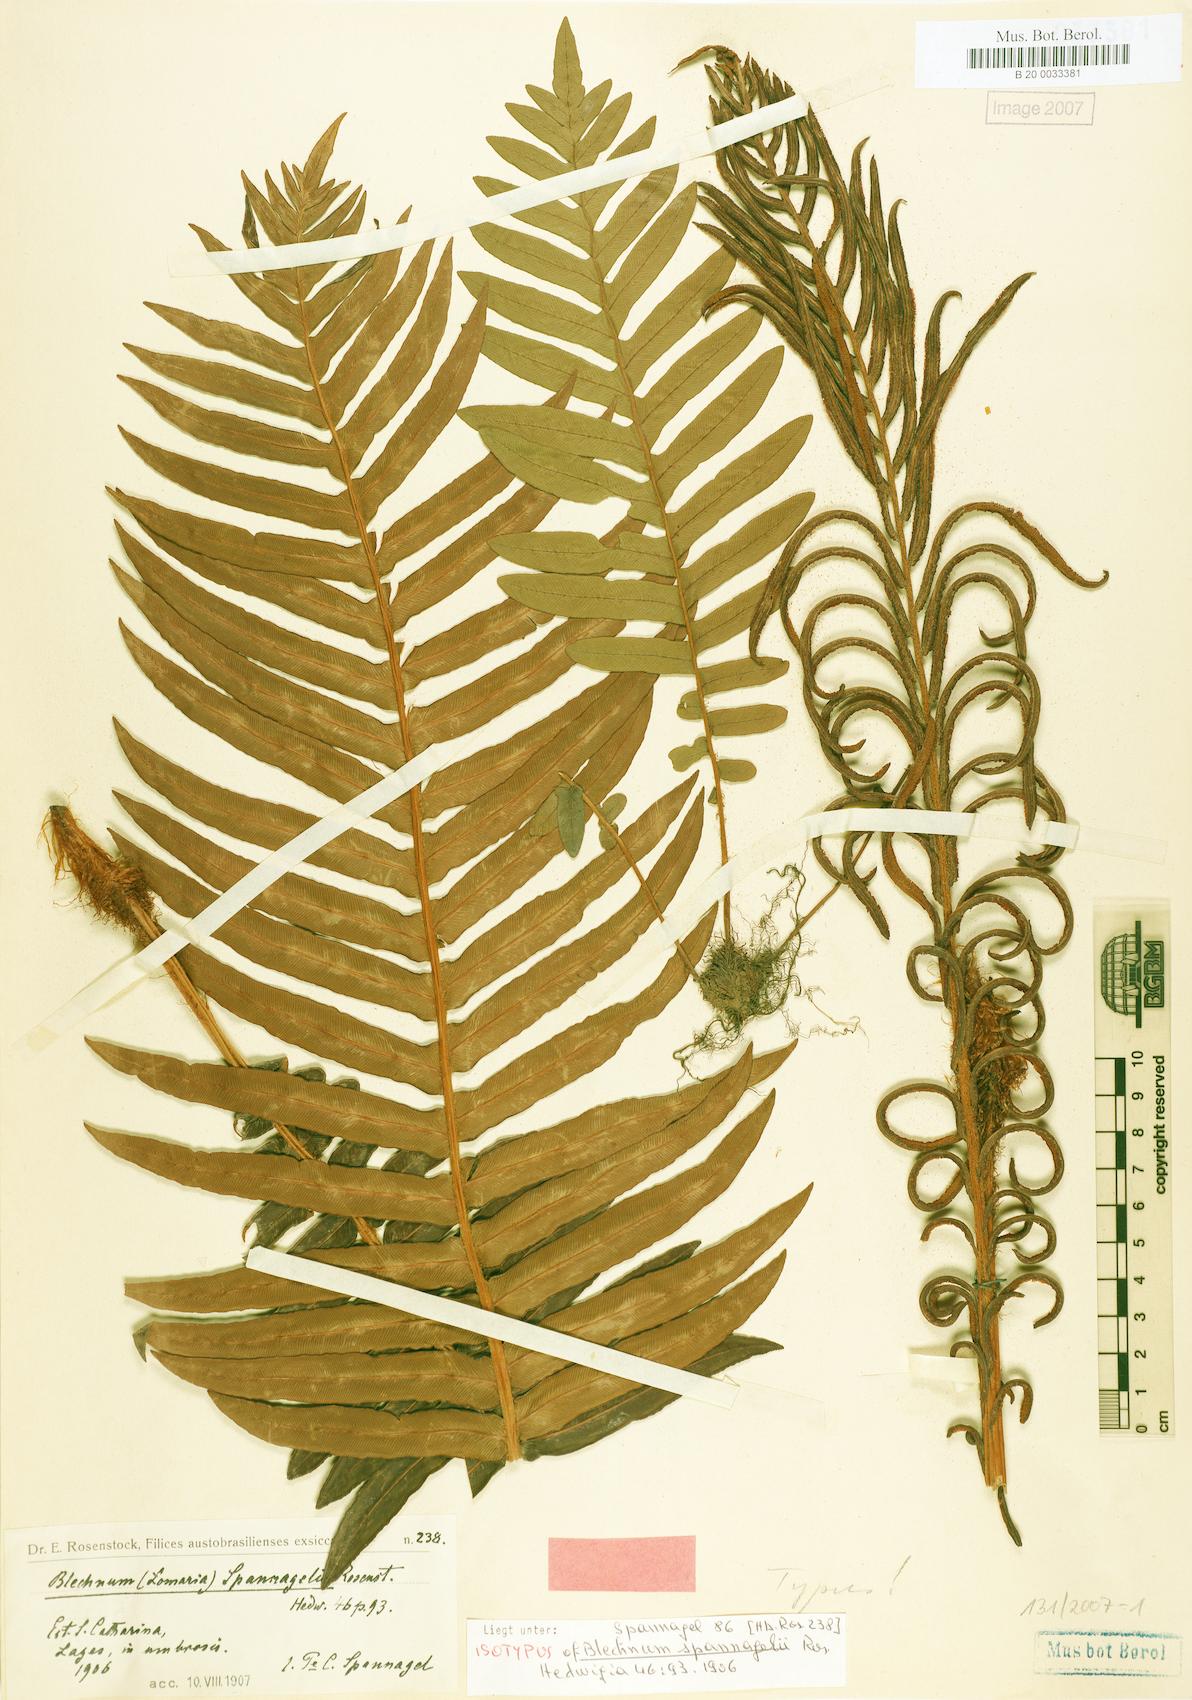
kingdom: Plantae
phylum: Tracheophyta
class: Polypodiopsida
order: Polypodiales
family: Blechnaceae
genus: Lomaria
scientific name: Lomaria spannagelii
